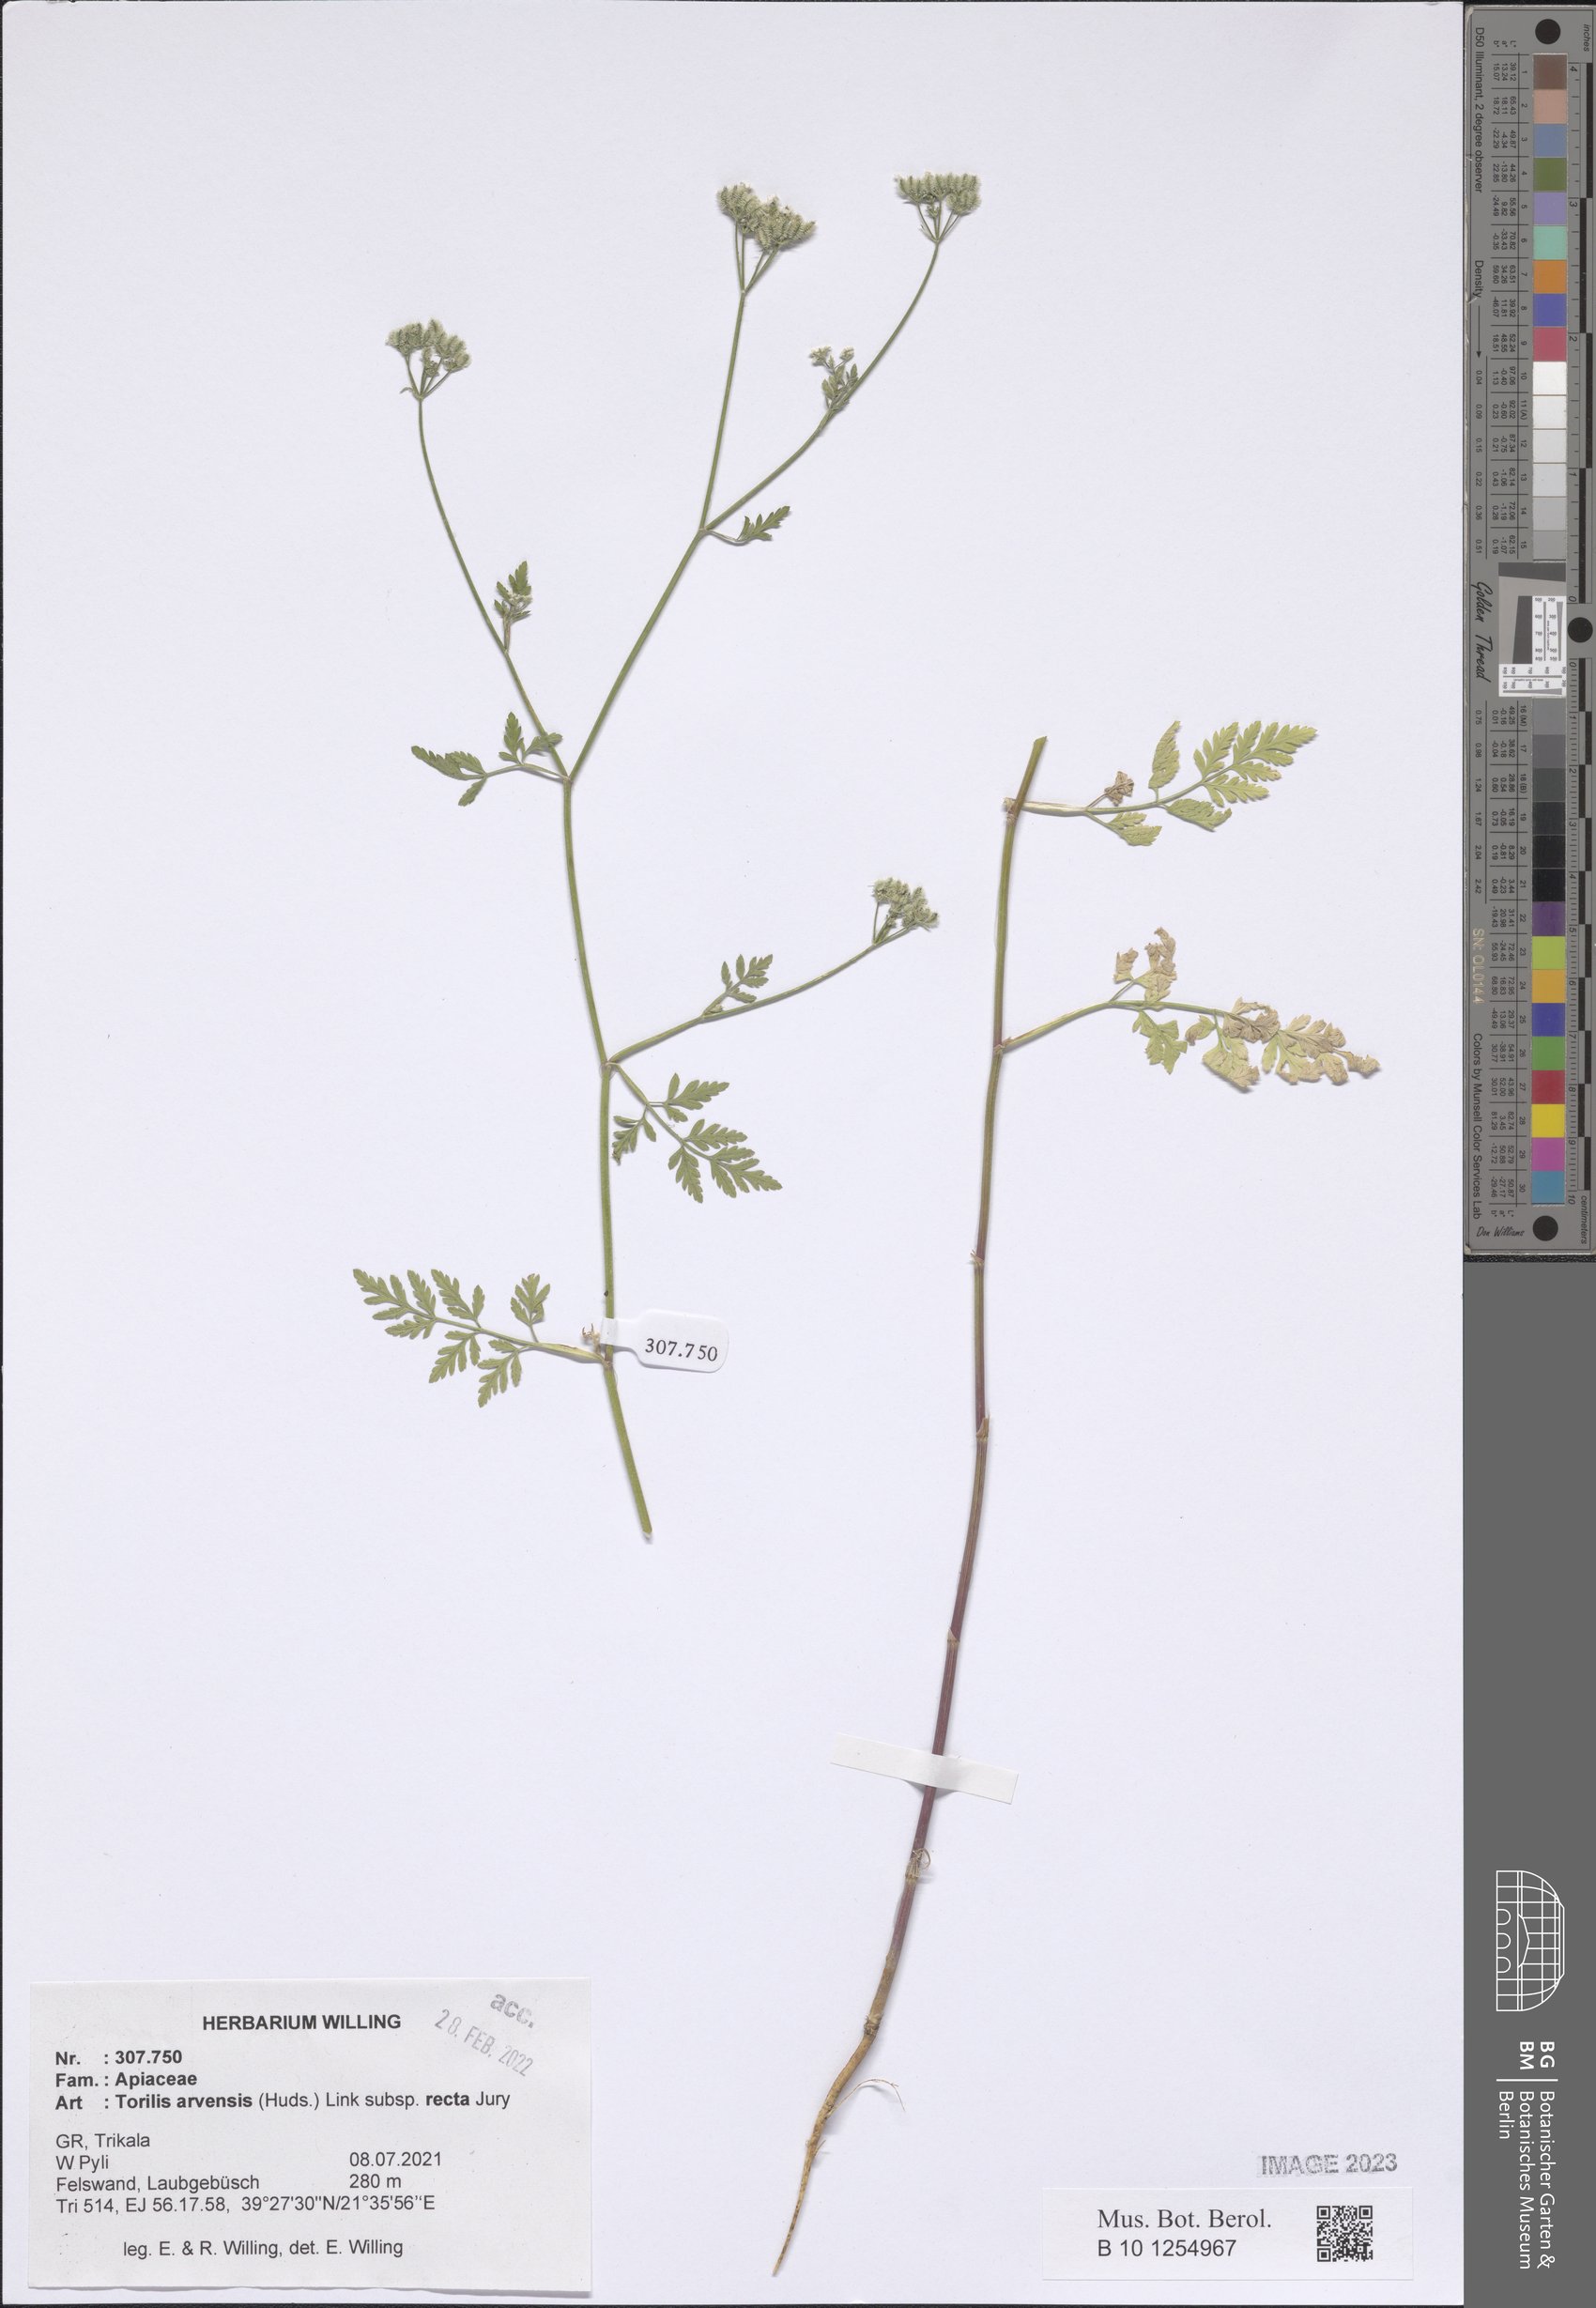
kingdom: Plantae
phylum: Tracheophyta
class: Magnoliopsida
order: Apiales
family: Apiaceae
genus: Torilis
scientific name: Torilis arvensis
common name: Spreading hedge-parsley
